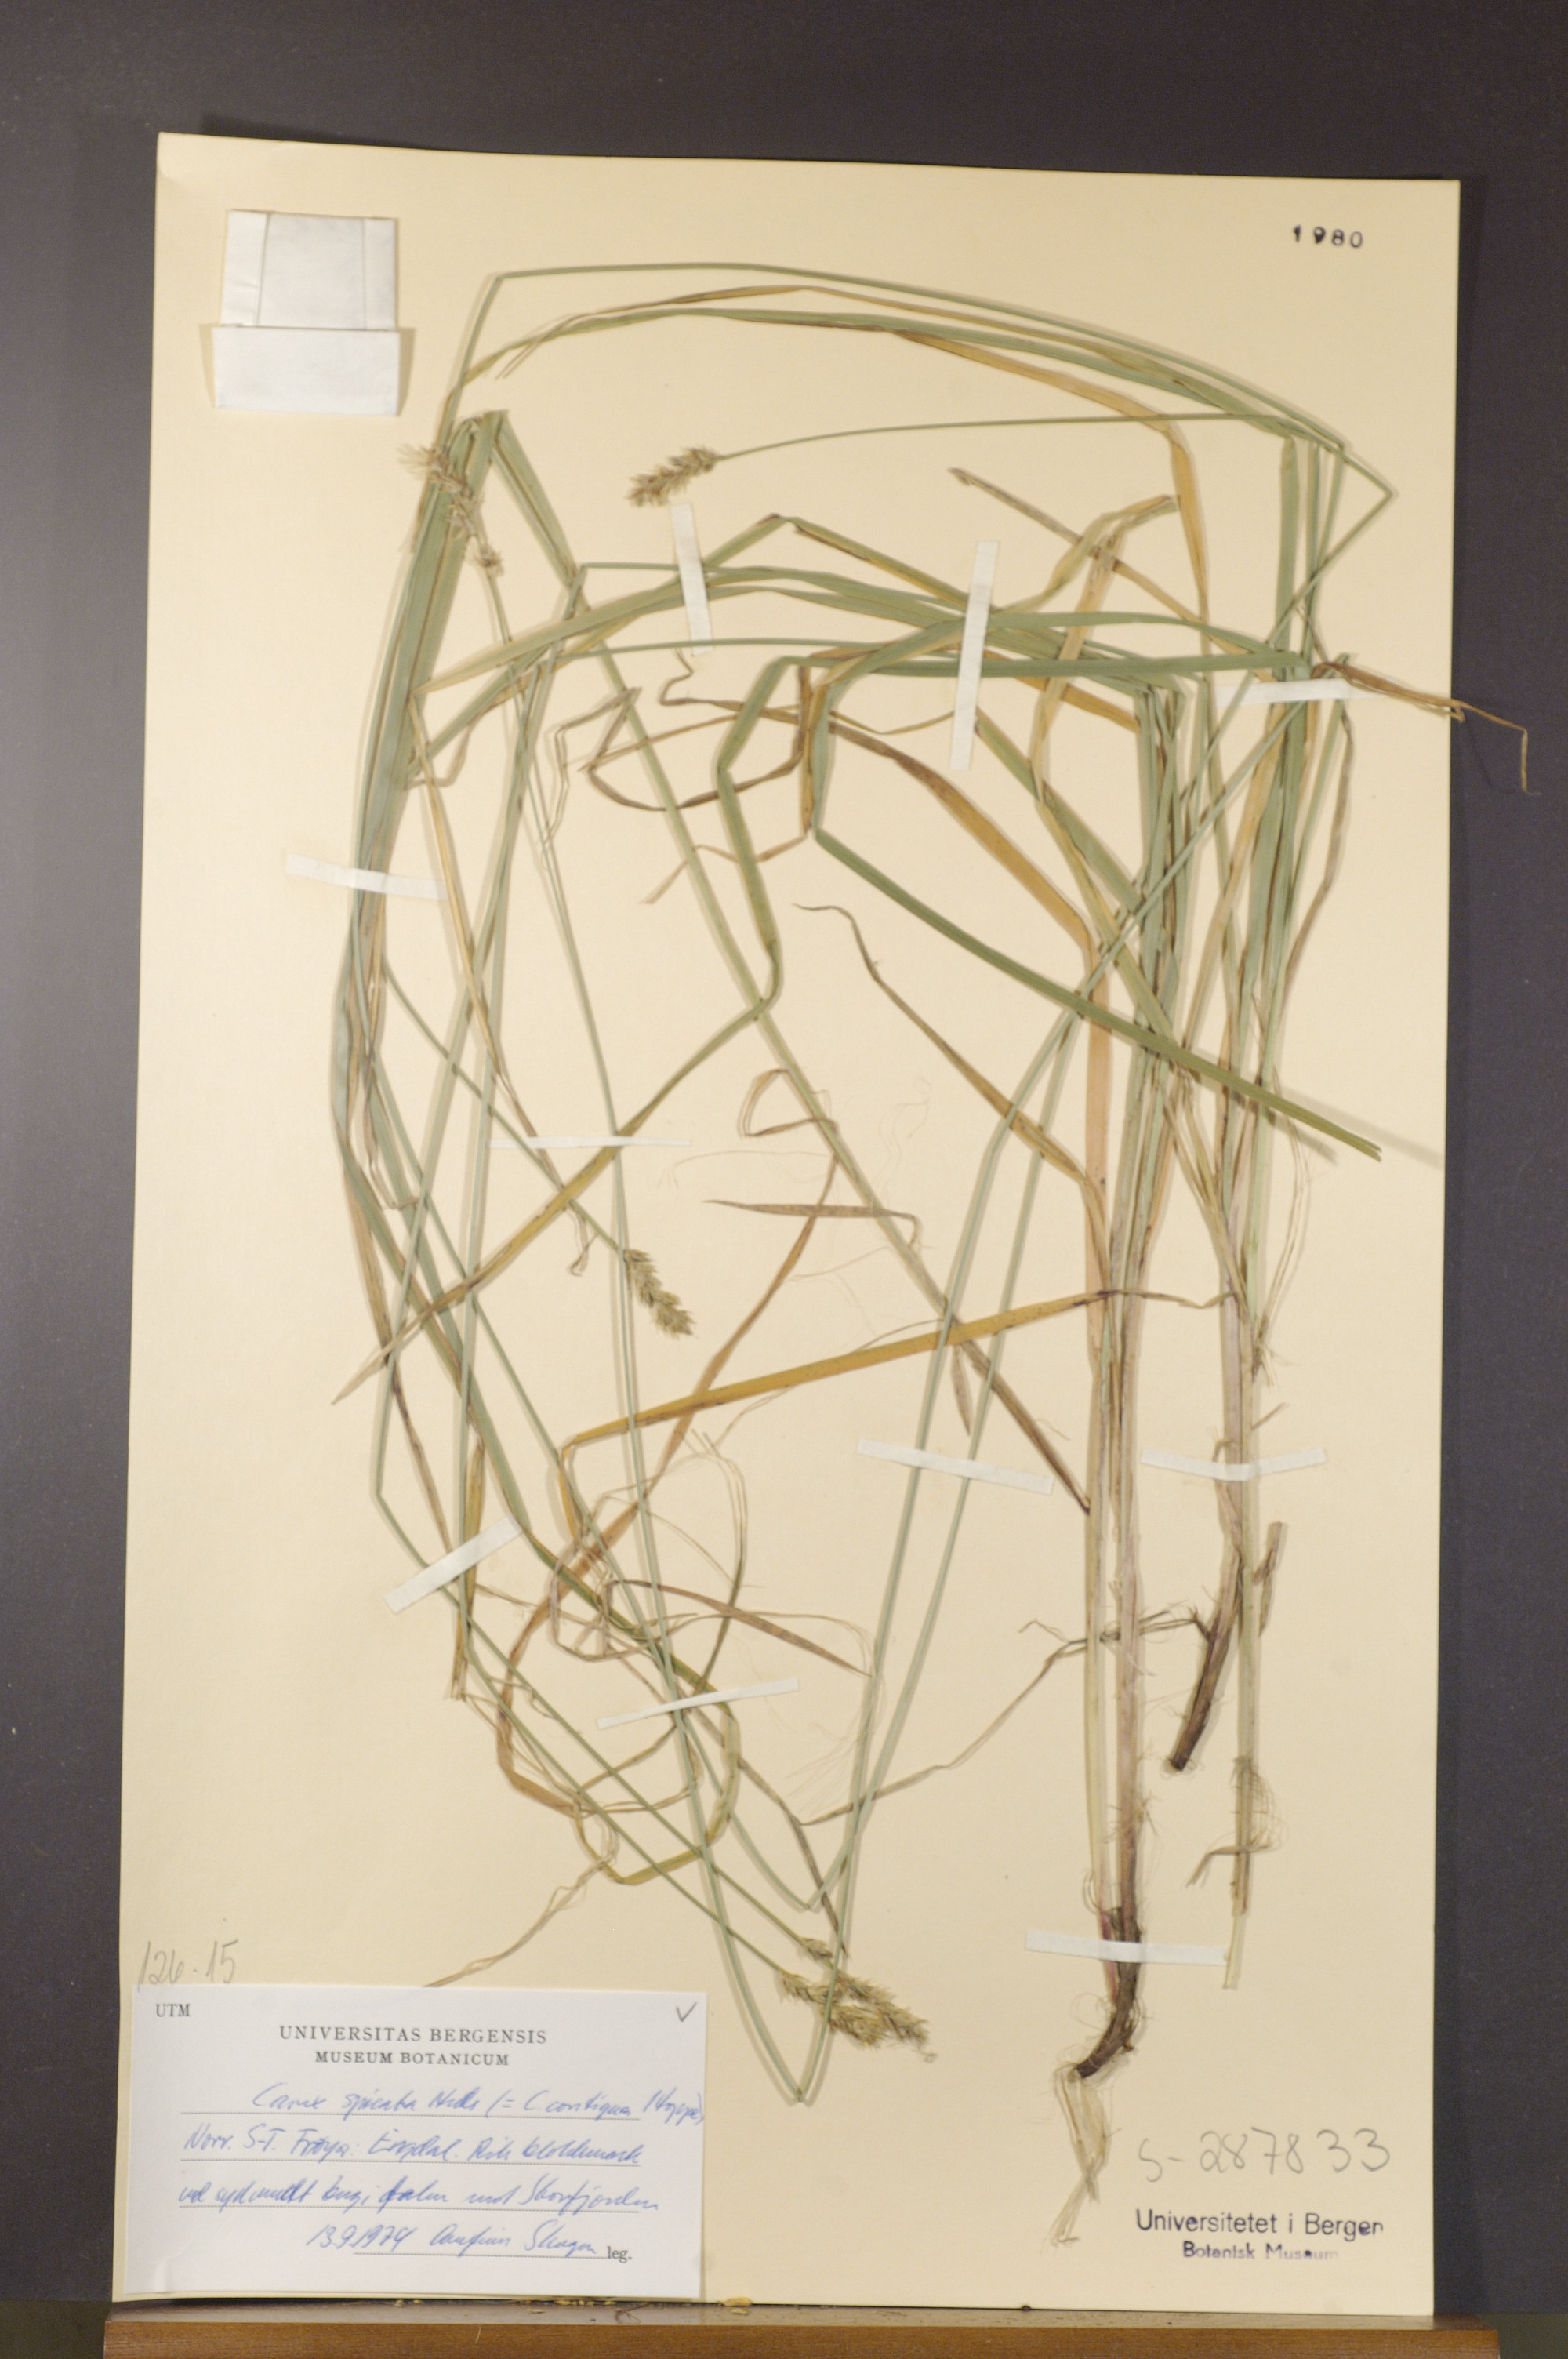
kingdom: Plantae
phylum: Tracheophyta
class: Liliopsida
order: Poales
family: Cyperaceae
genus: Carex
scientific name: Carex spicata
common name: Spiked sedge
